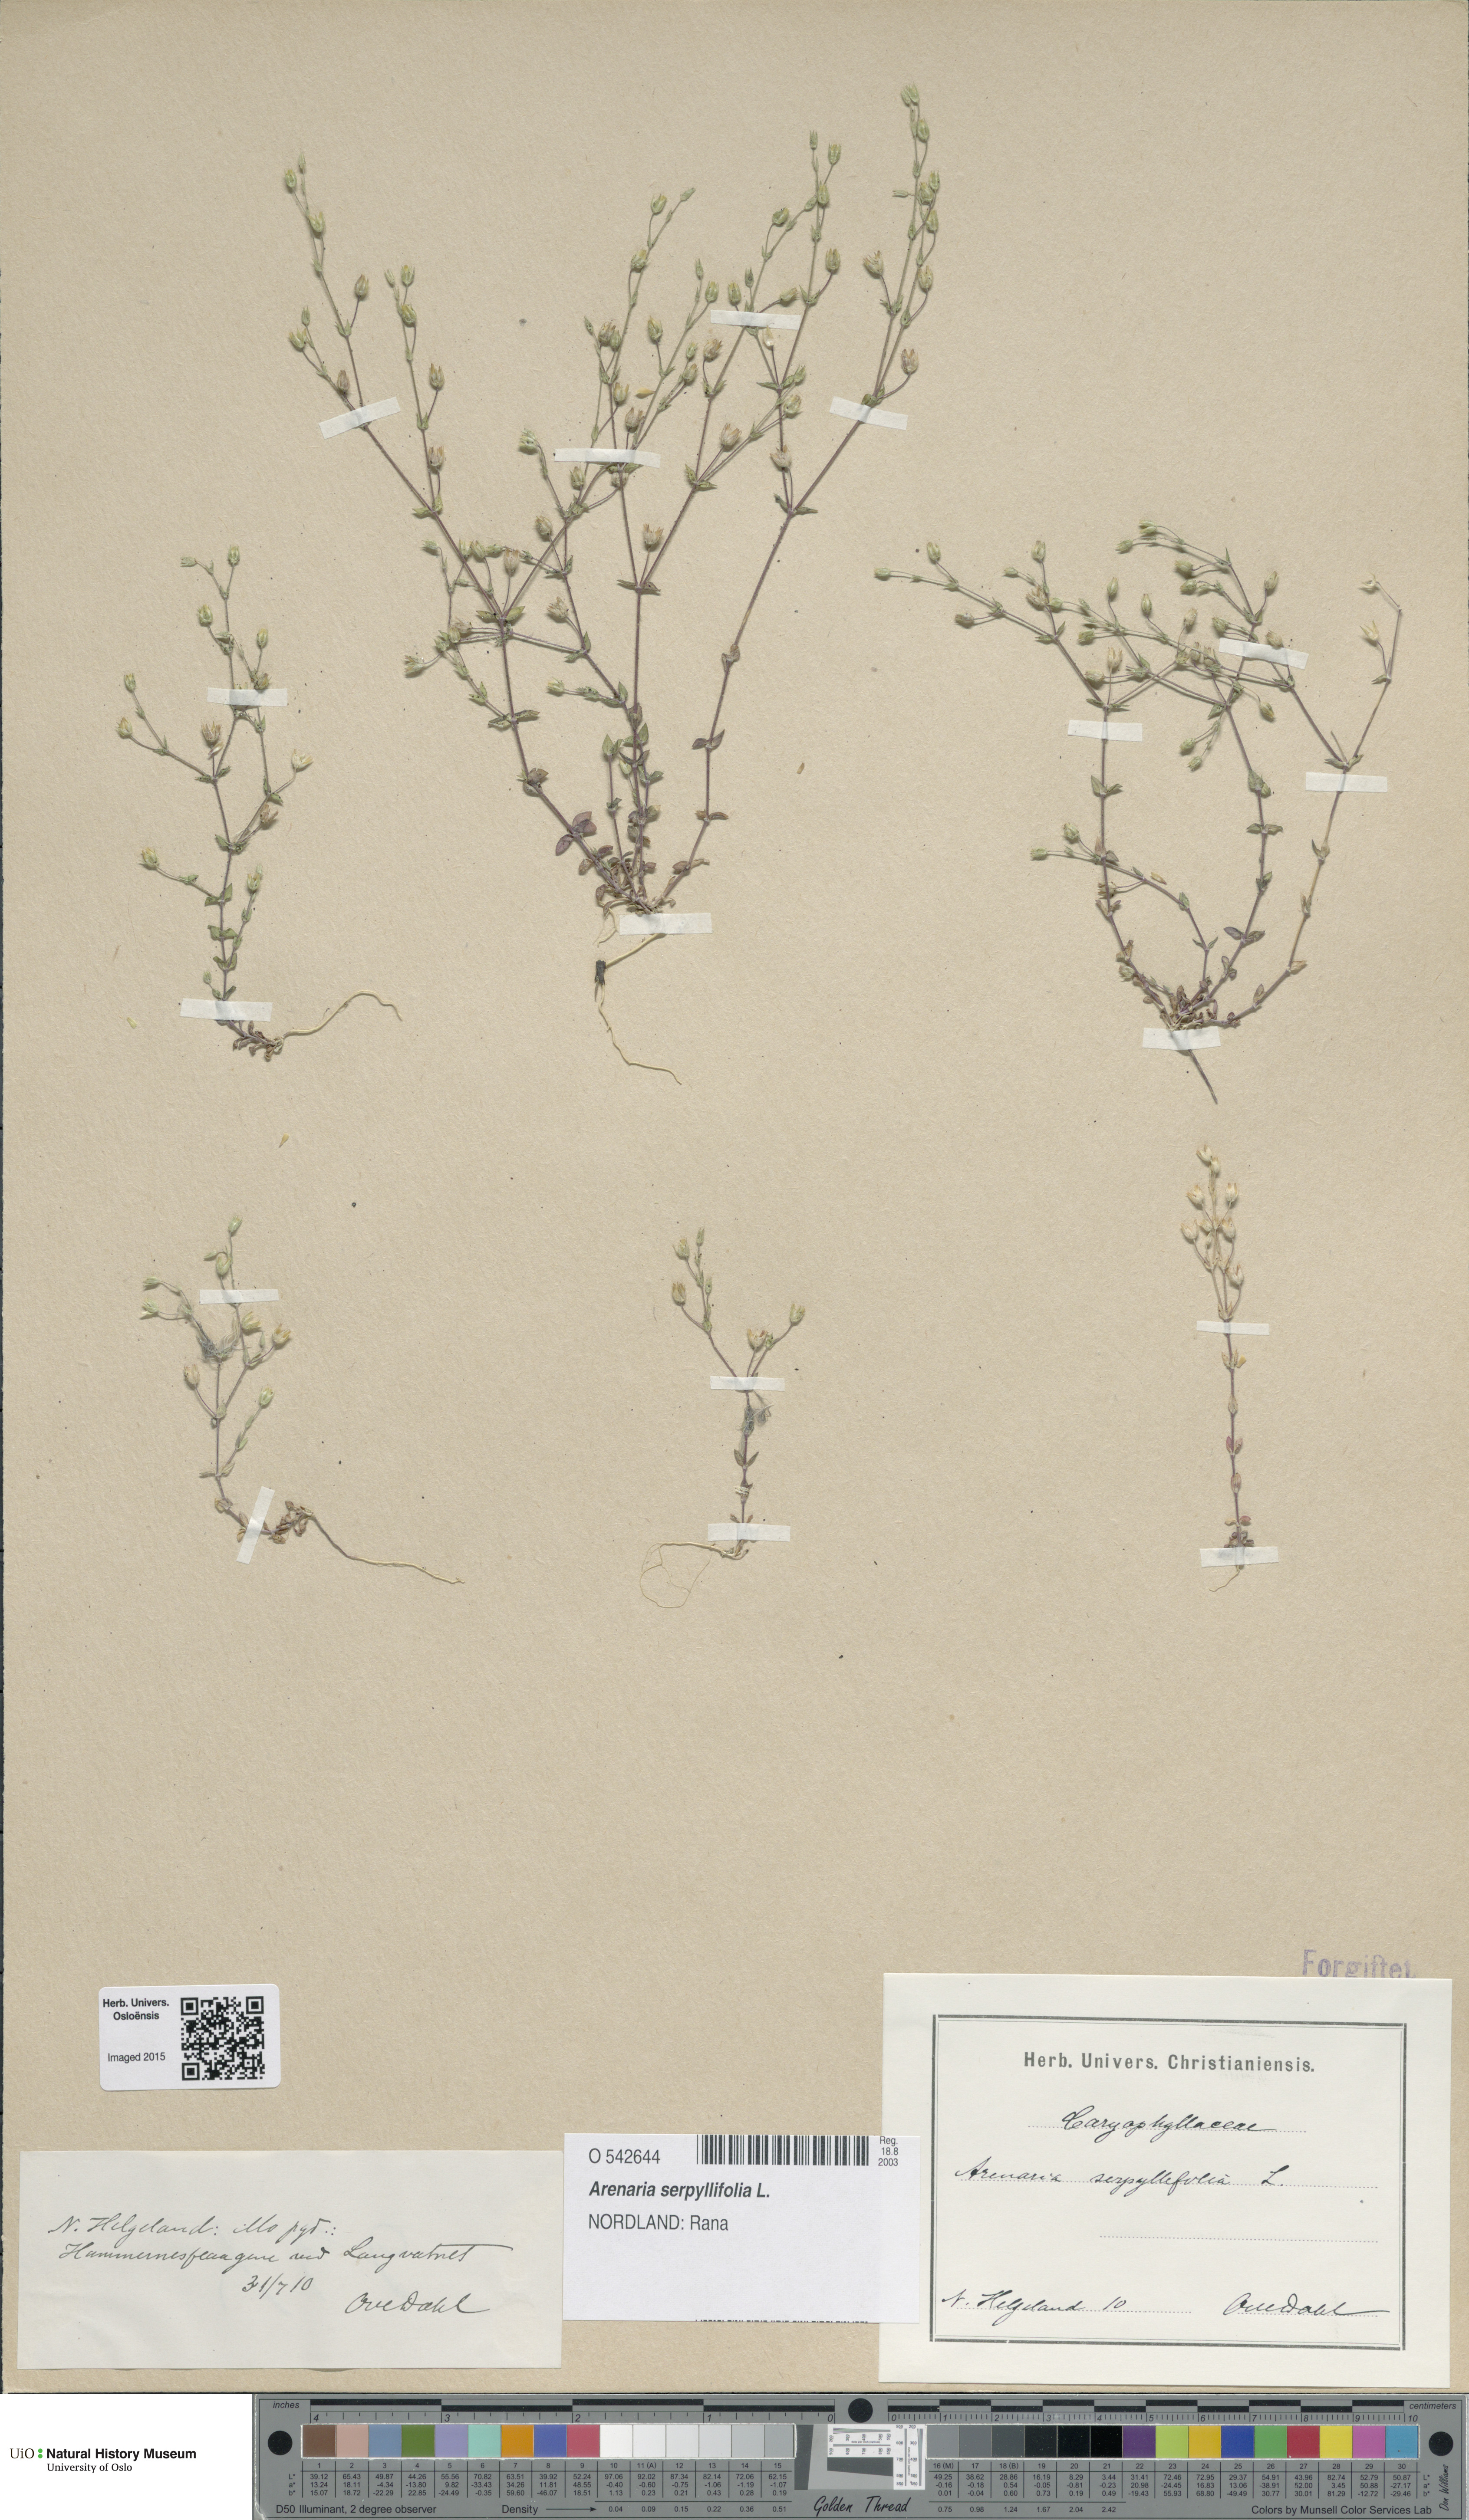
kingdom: Plantae
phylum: Tracheophyta
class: Magnoliopsida
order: Caryophyllales
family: Caryophyllaceae
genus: Arenaria
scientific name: Arenaria serpyllifolia
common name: Thyme-leaved sandwort
